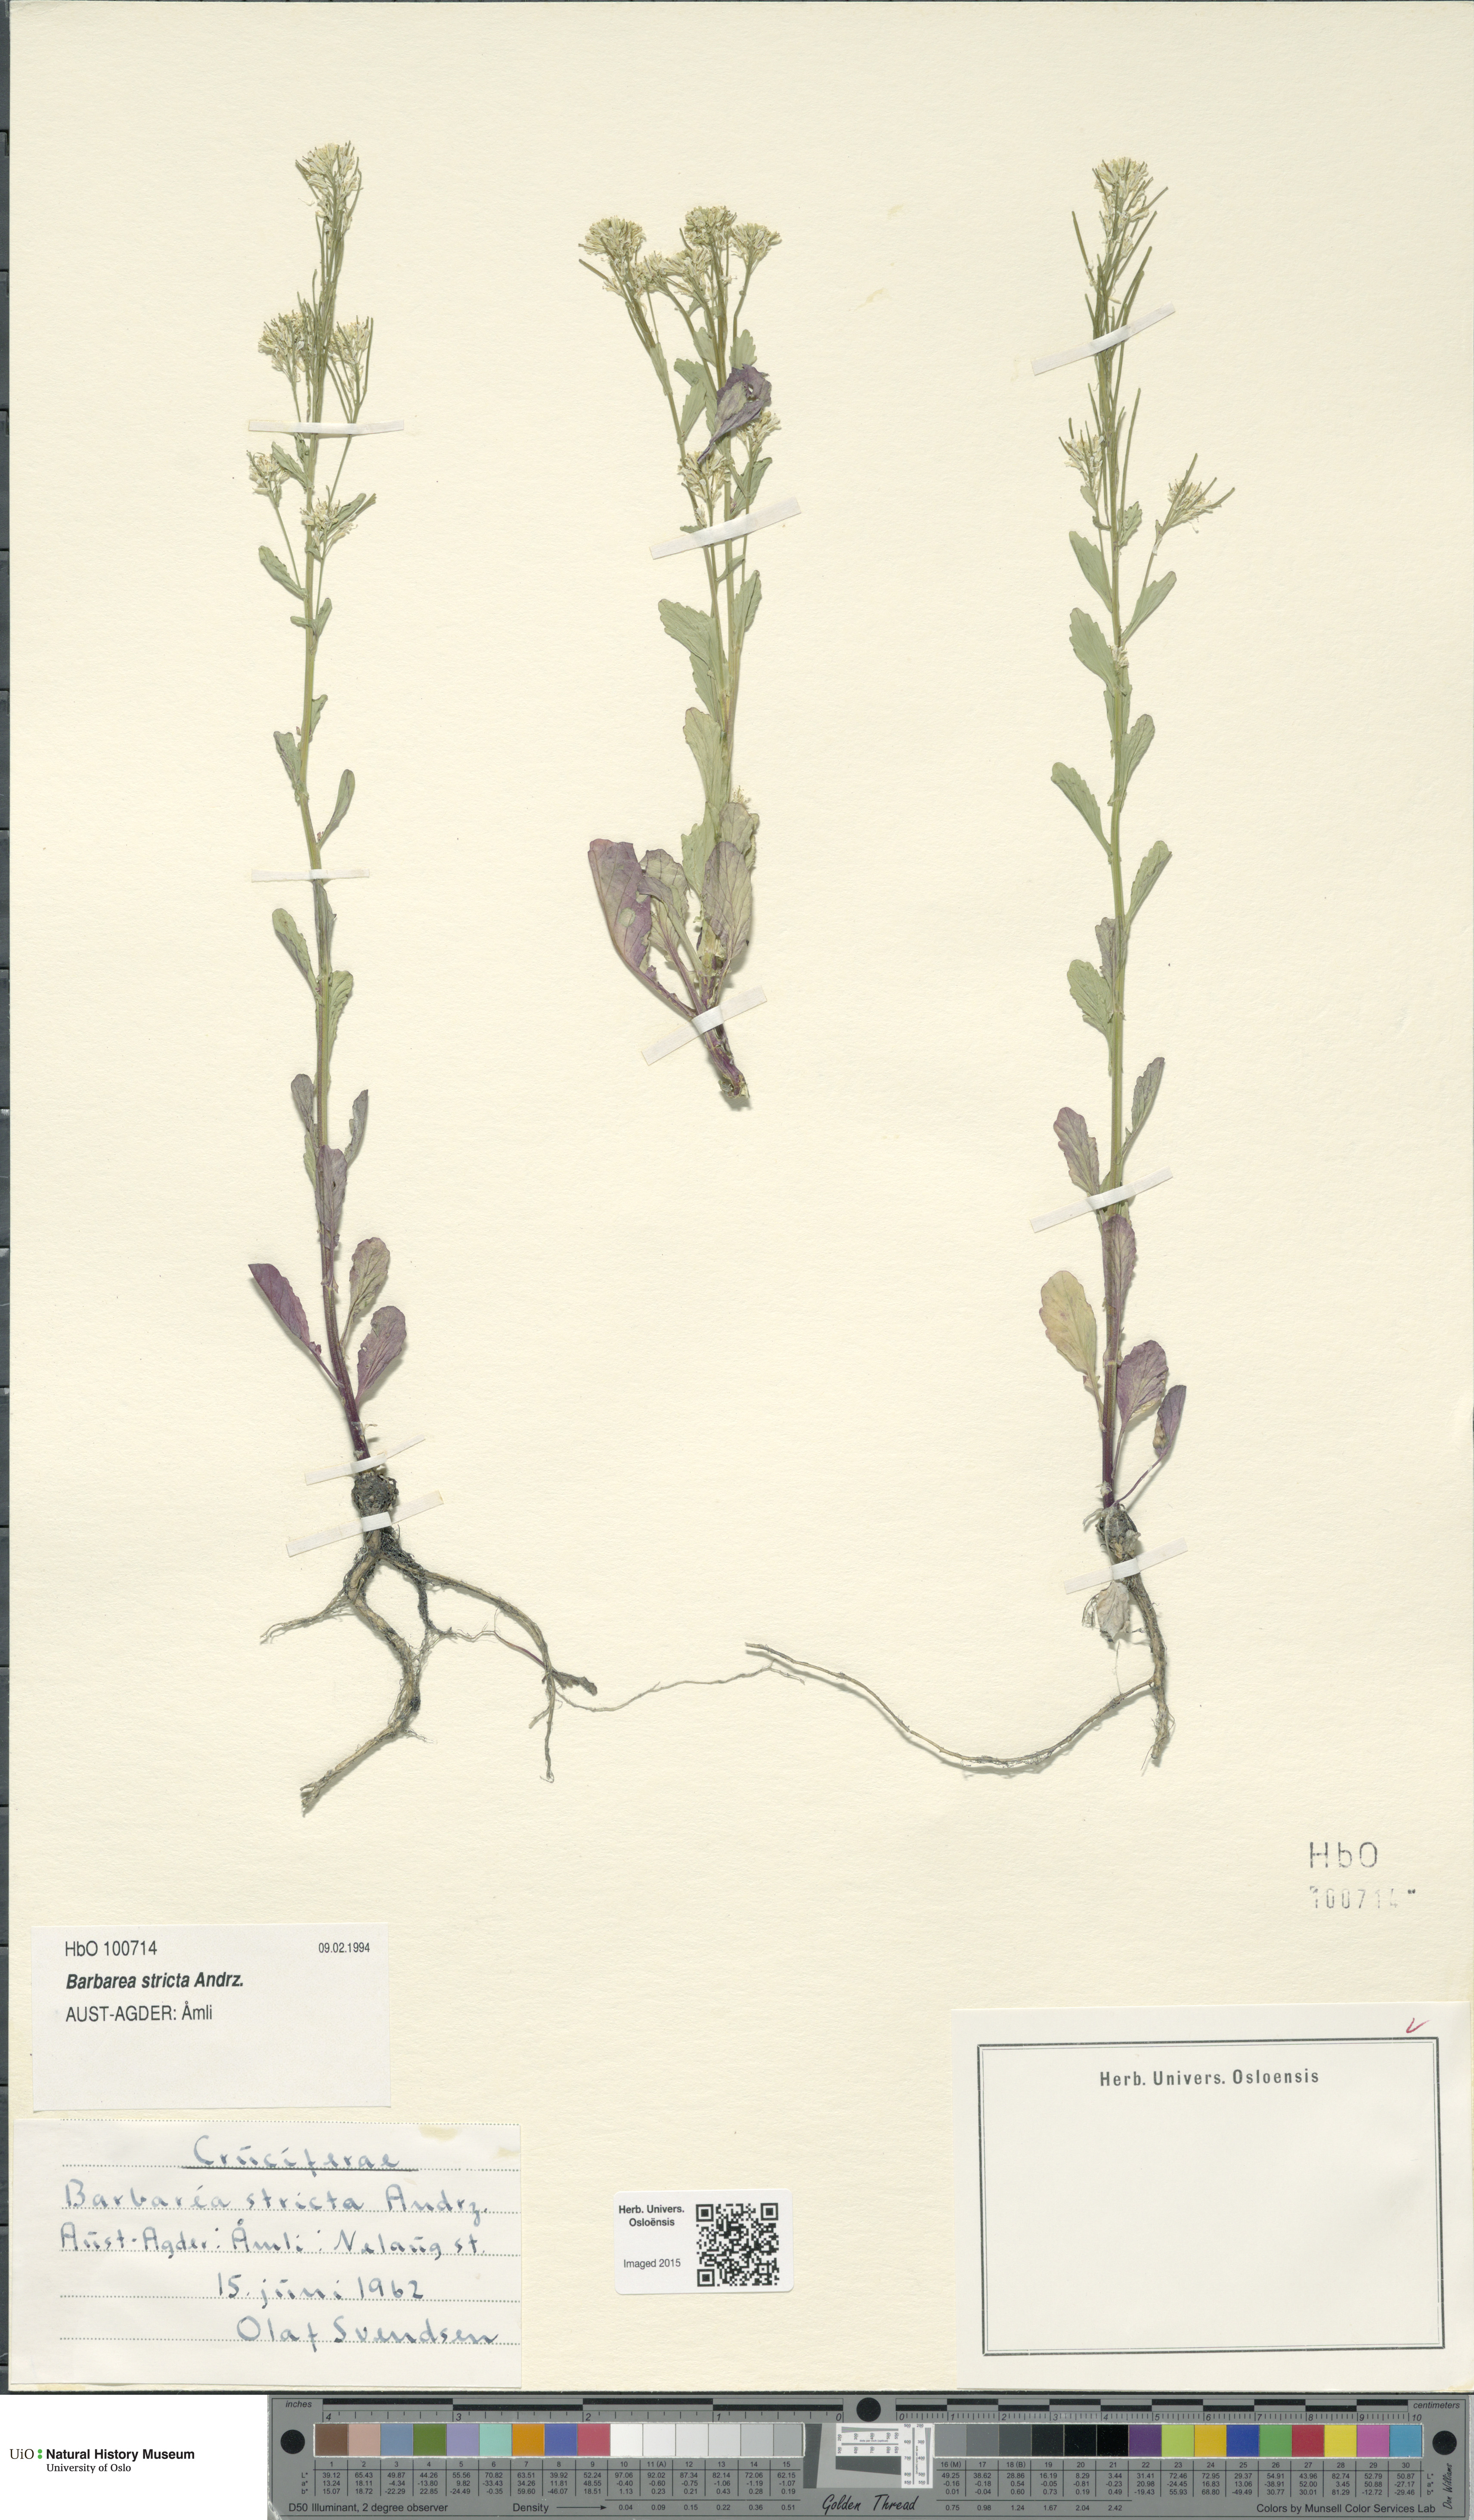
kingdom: Plantae
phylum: Tracheophyta
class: Magnoliopsida
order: Brassicales
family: Brassicaceae
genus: Barbarea
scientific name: Barbarea stricta
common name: Small-flowered winter-cress
